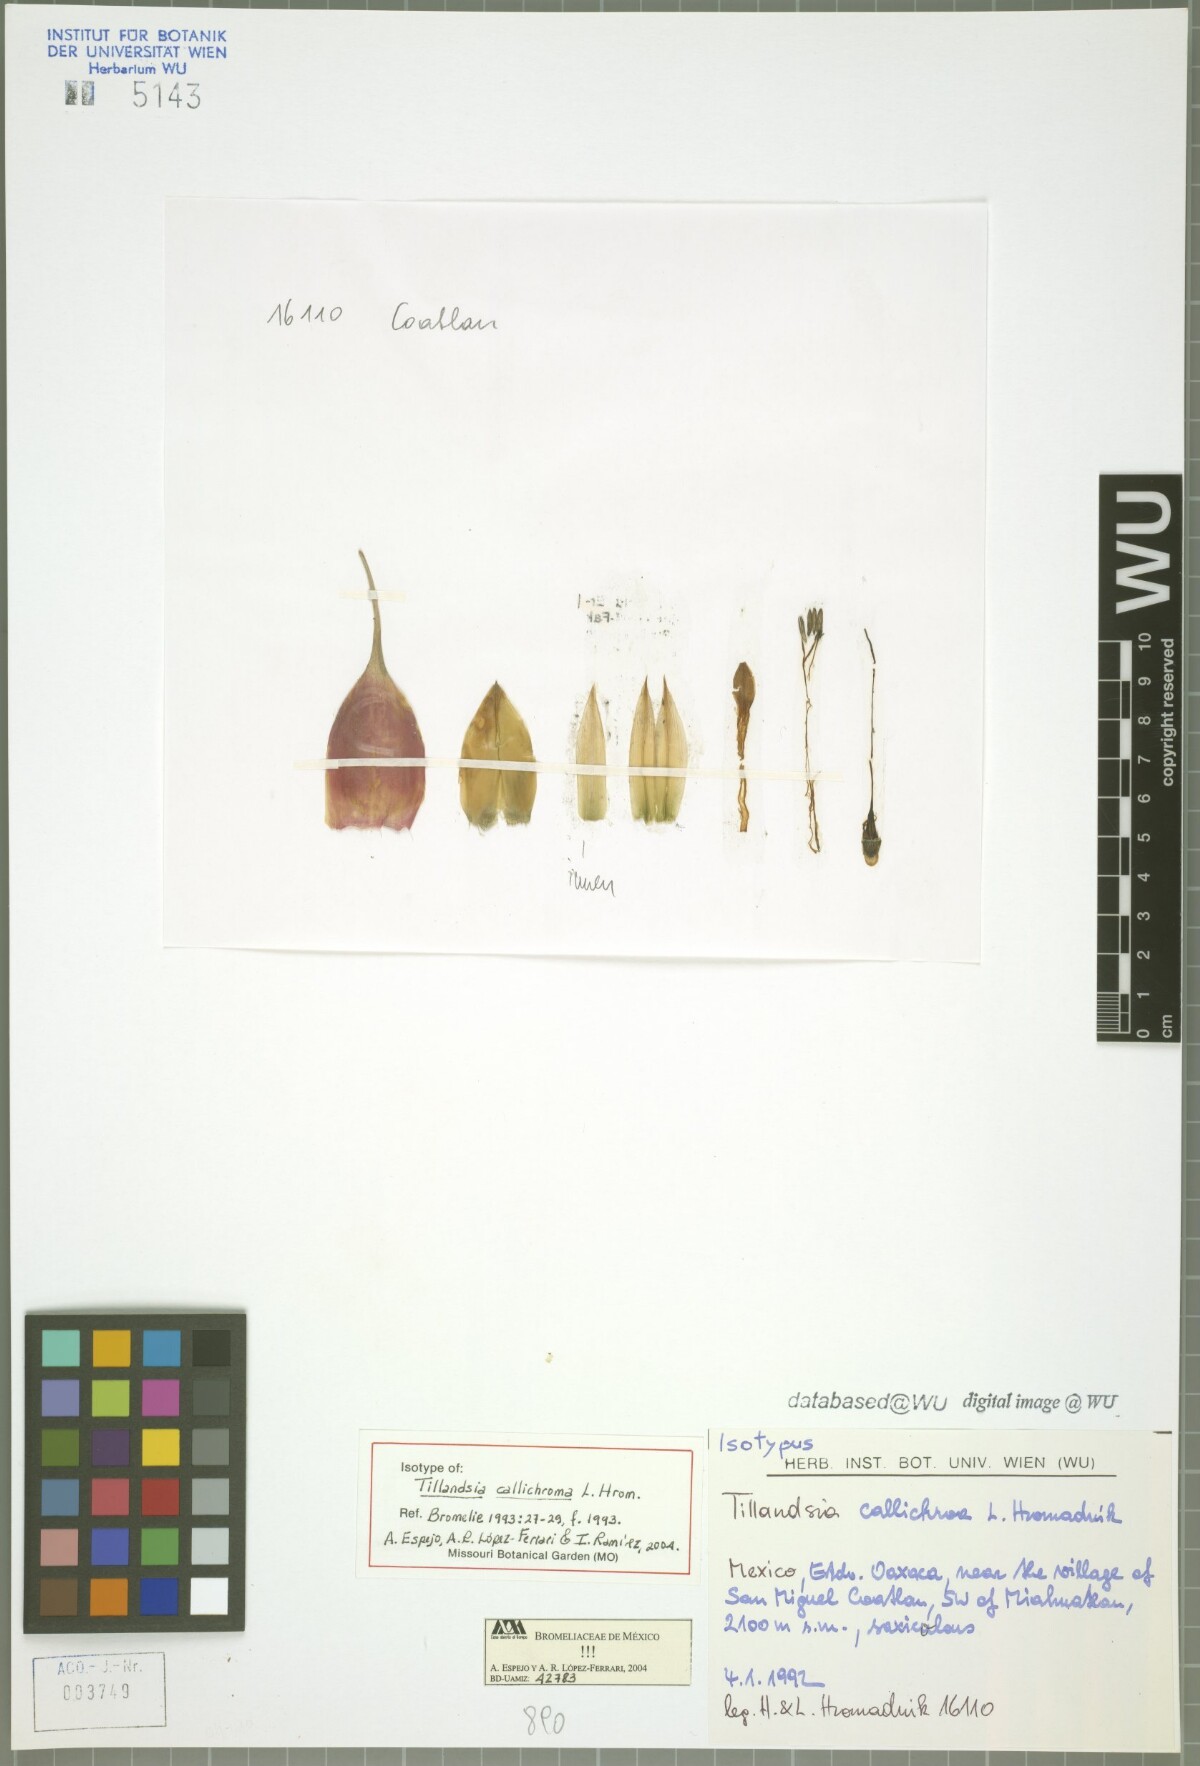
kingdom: Plantae
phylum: Tracheophyta
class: Liliopsida
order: Poales
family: Bromeliaceae
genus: Tillandsia
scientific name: Tillandsia callichroma
